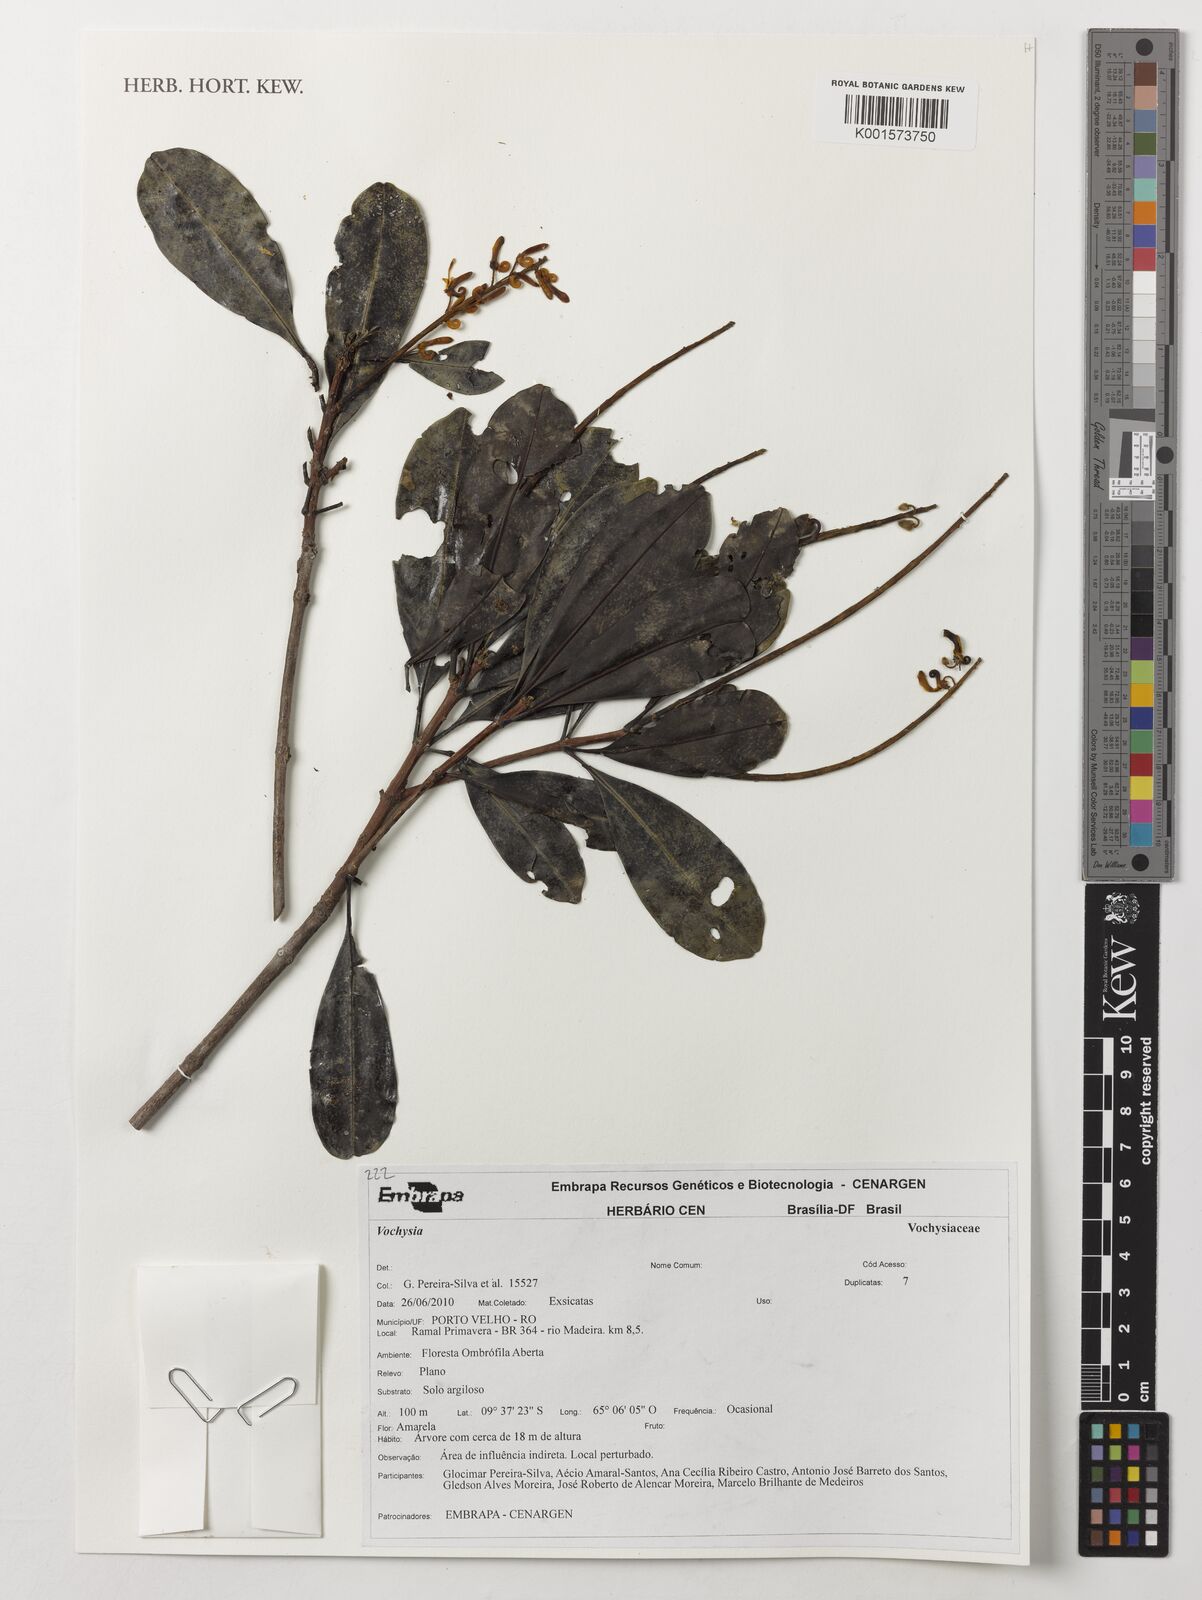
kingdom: Plantae
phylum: Tracheophyta
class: Magnoliopsida
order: Myrtales
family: Vochysiaceae
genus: Vochysia
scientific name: Vochysia
